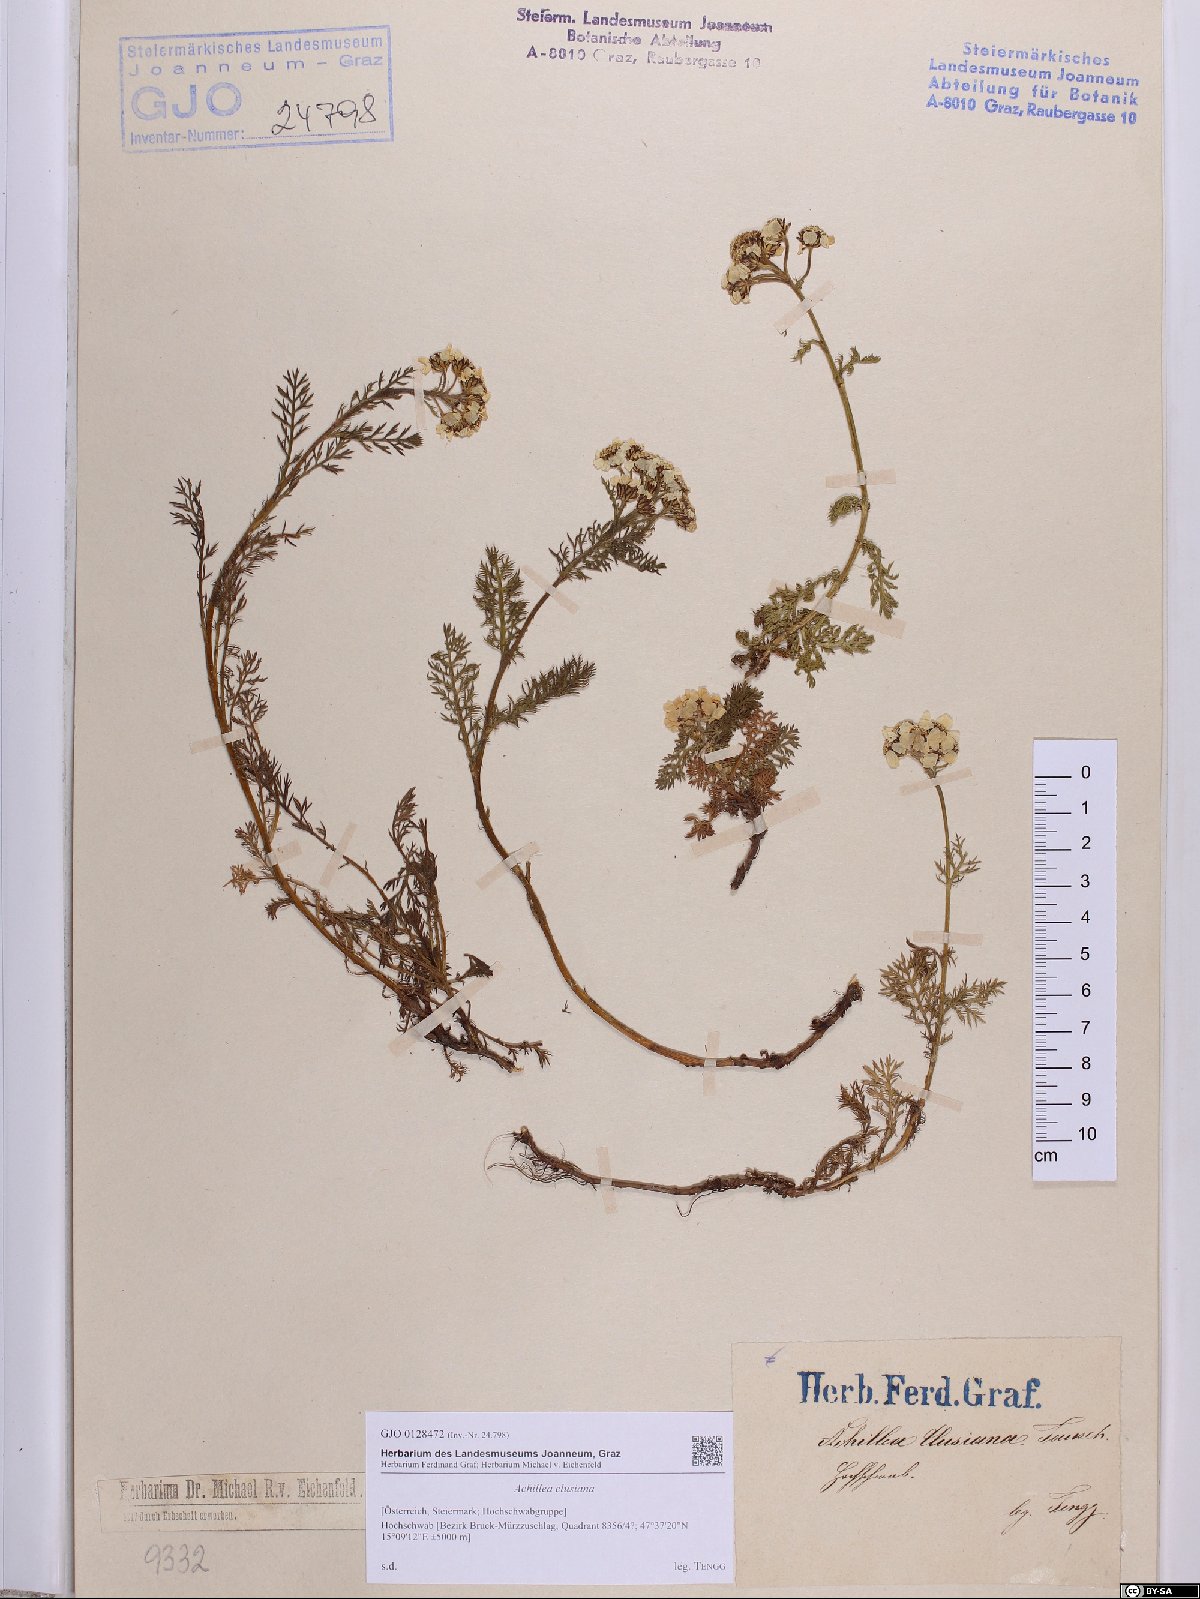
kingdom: Plantae
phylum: Tracheophyta
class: Magnoliopsida
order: Asterales
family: Asteraceae
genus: Achillea
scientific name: Achillea clusiana
